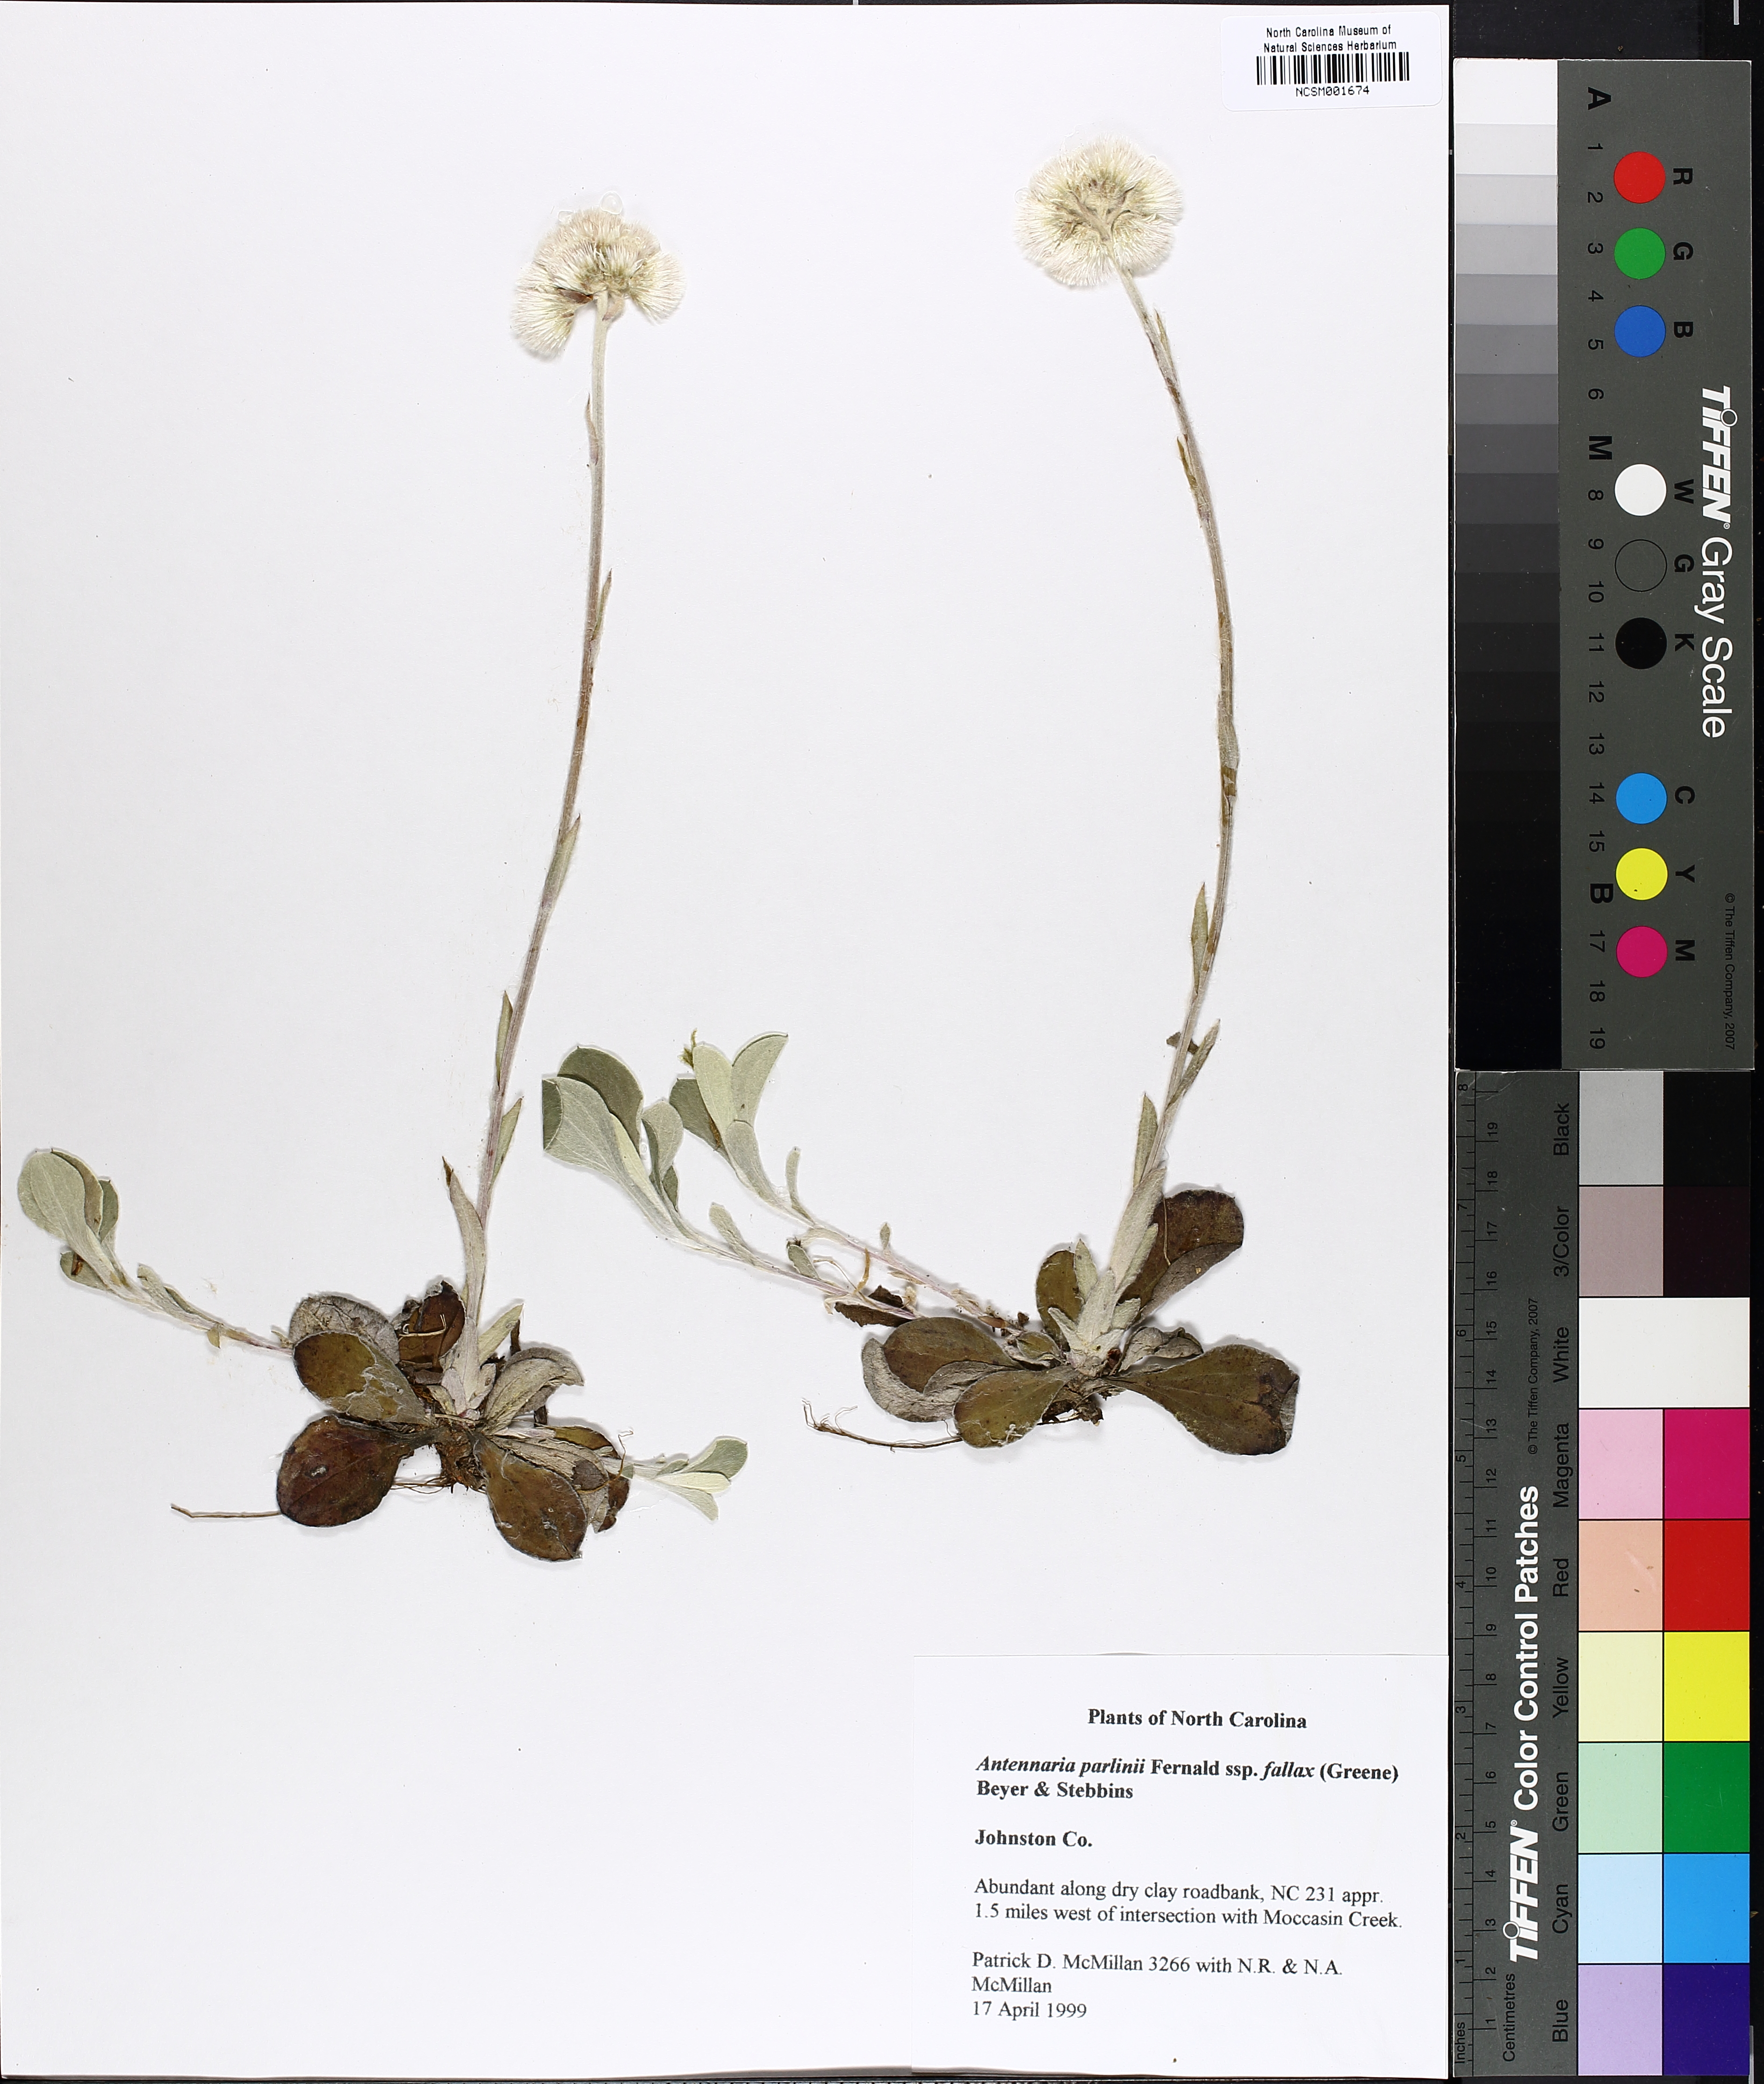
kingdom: Plantae
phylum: Tracheophyta
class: Magnoliopsida
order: Asterales
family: Asteraceae
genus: Antennaria
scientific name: Antennaria parlinii
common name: Parlin's pussytoes
